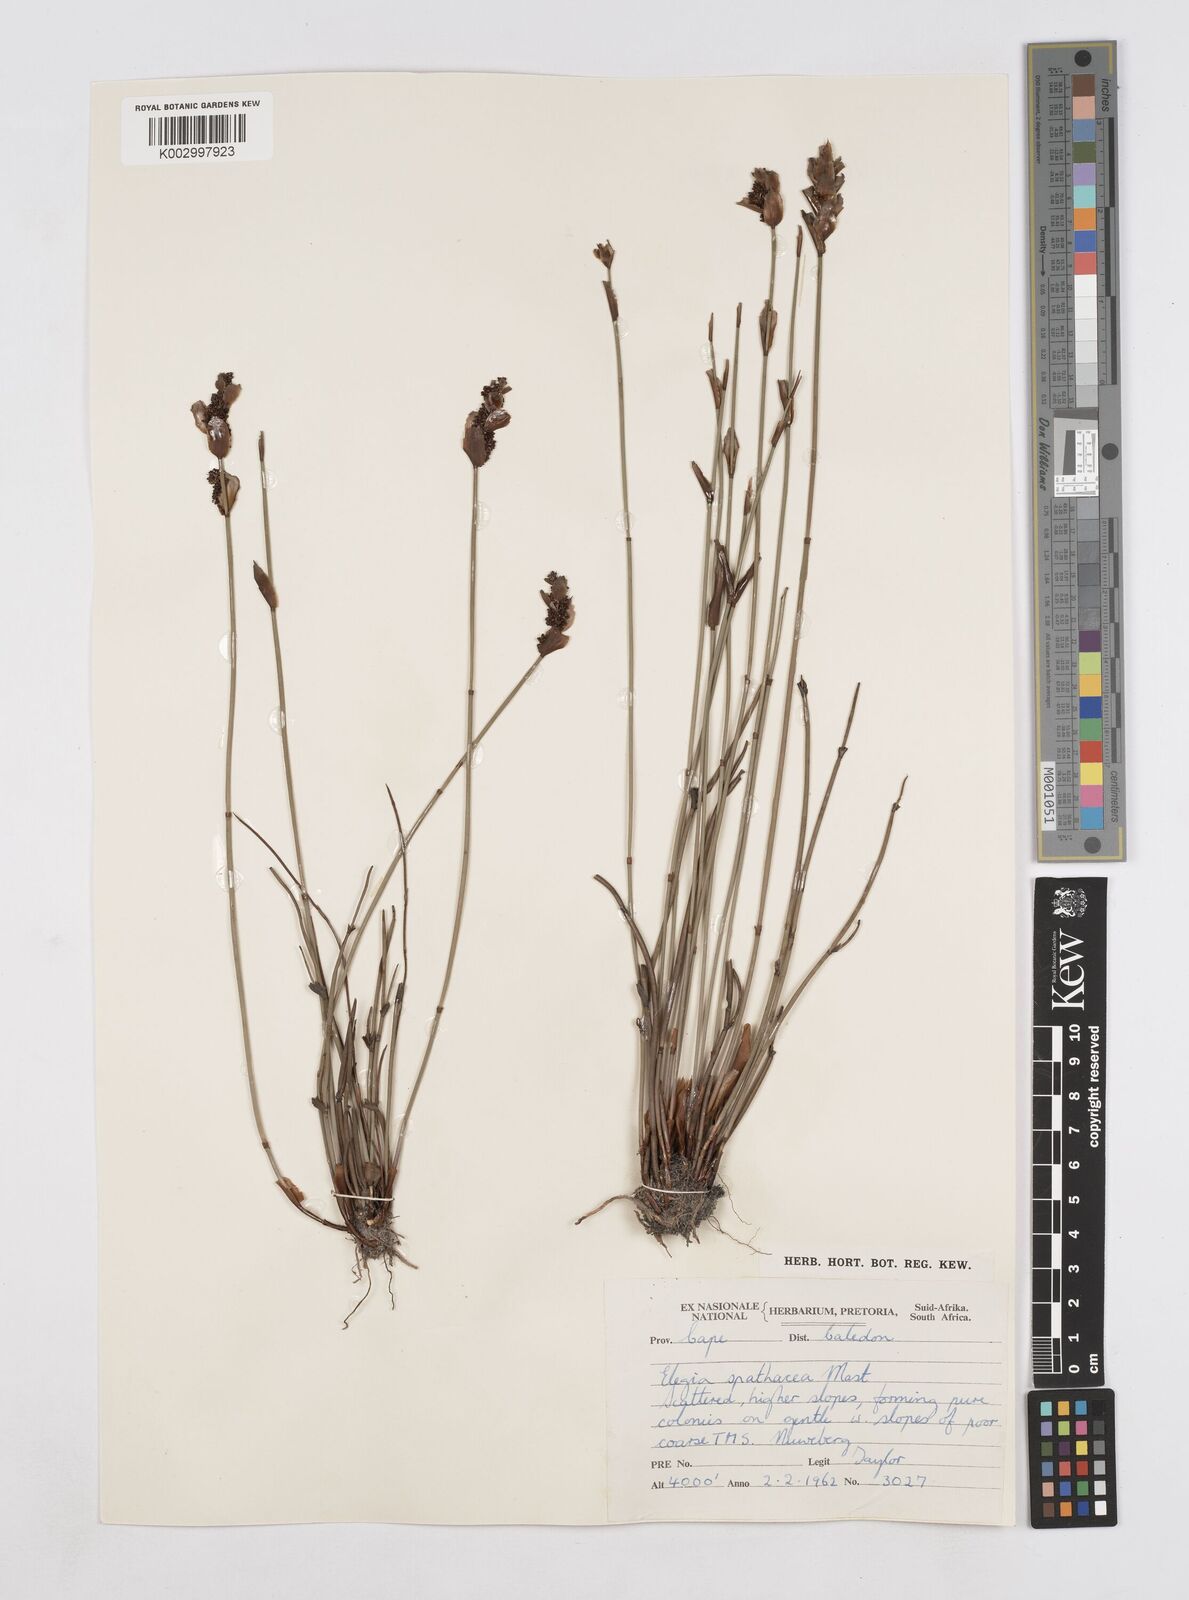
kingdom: Plantae
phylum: Tracheophyta
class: Liliopsida
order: Poales
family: Restionaceae
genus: Elegia
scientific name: Elegia spathacea
